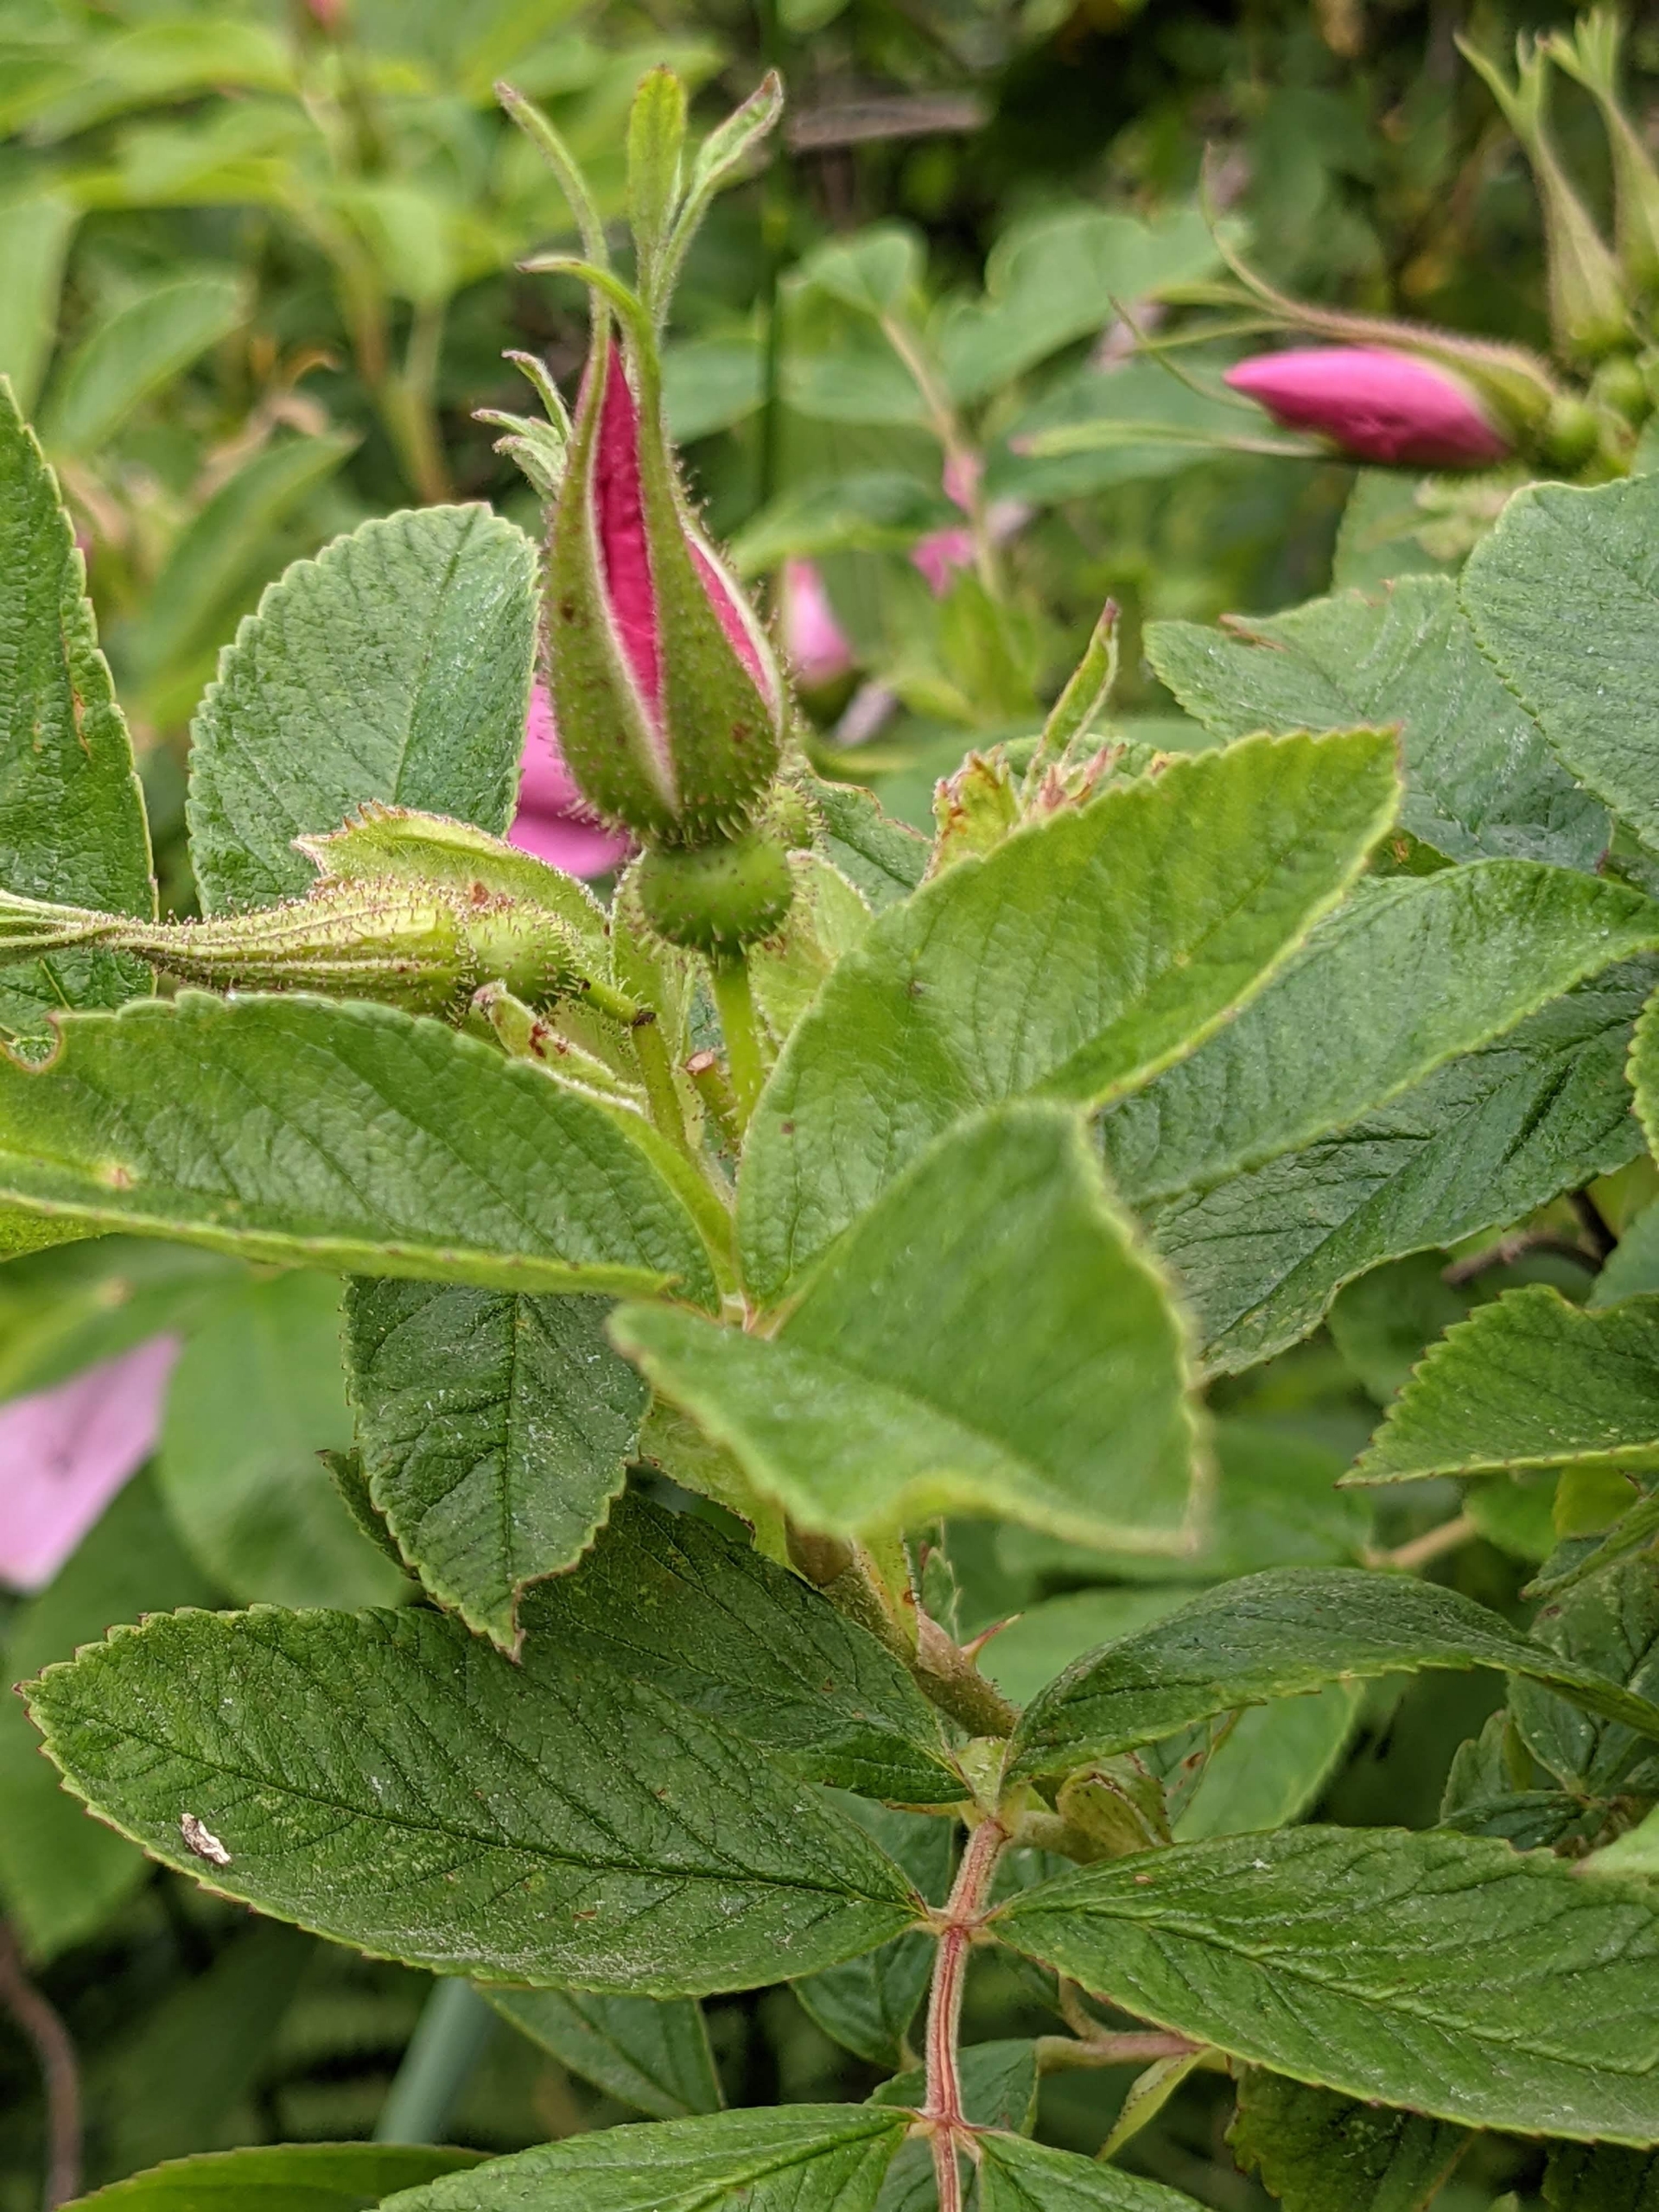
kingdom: Plantae
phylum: Tracheophyta
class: Magnoliopsida
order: Rosales
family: Rosaceae
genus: Rosa
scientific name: Rosa spaethiana
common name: Kamtjatka-rose
